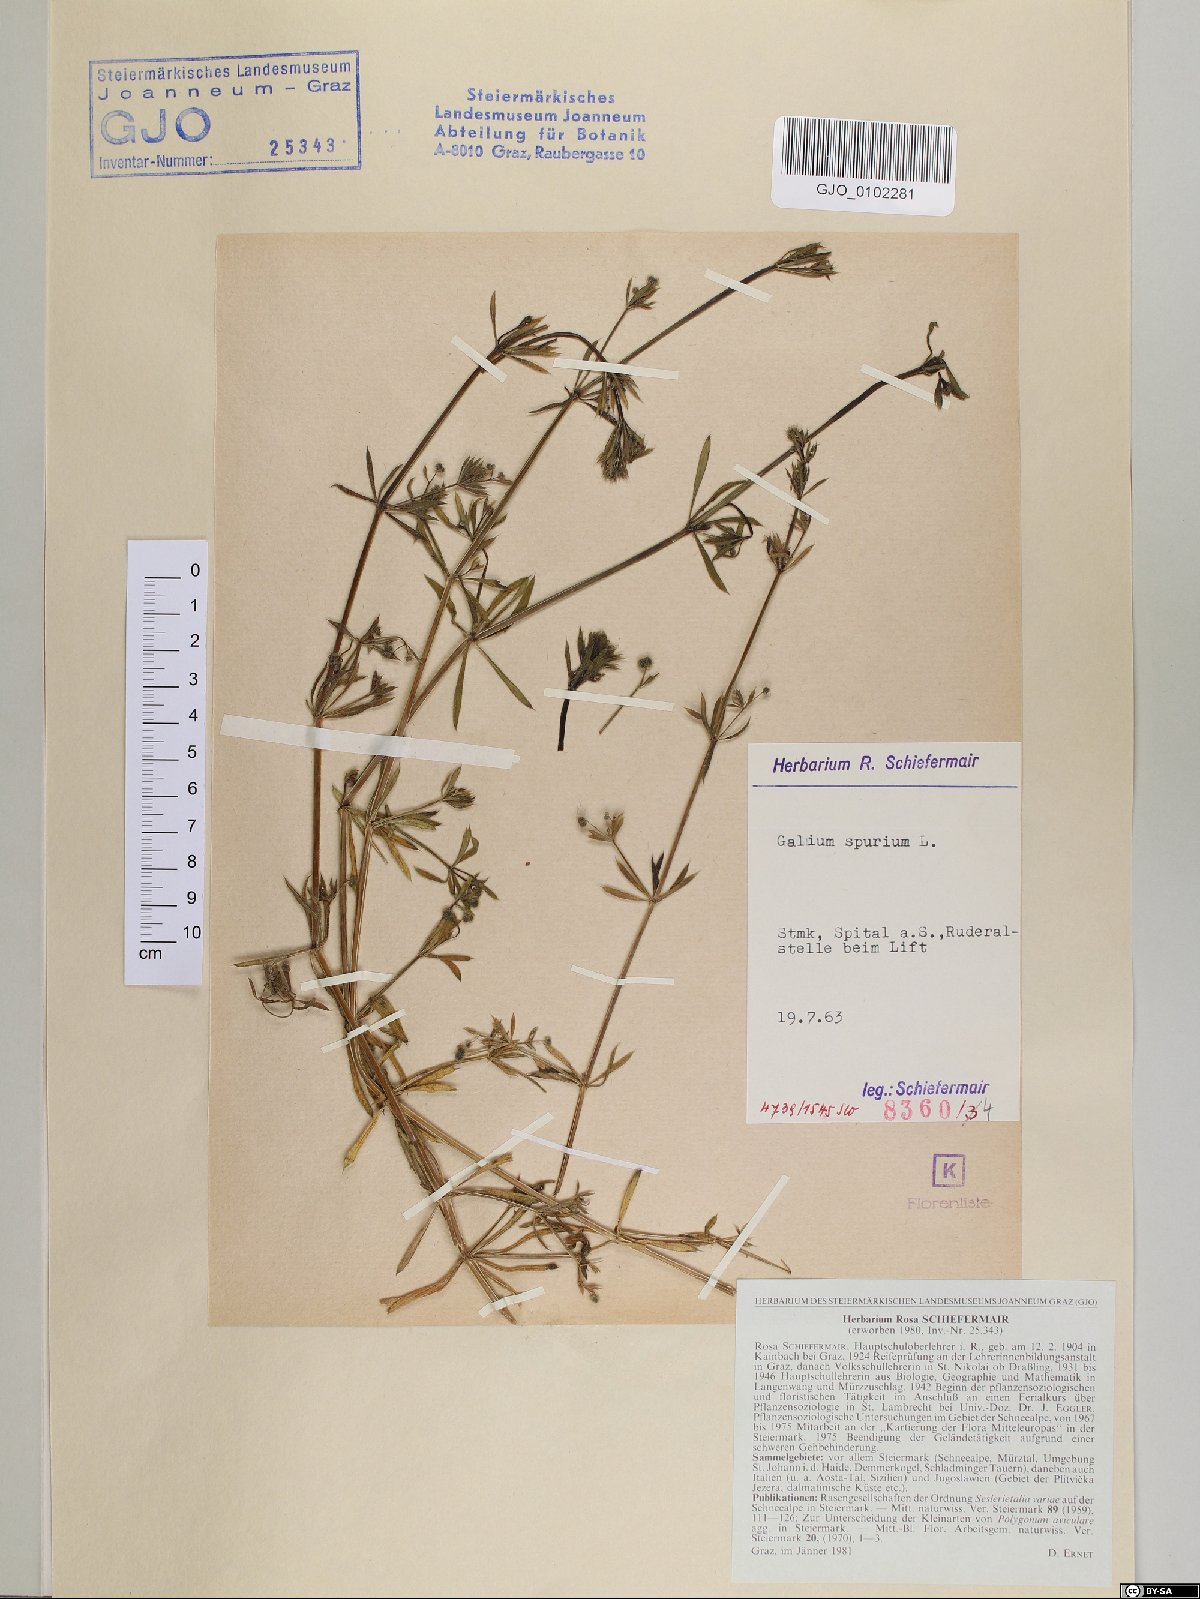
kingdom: Plantae
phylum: Tracheophyta
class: Magnoliopsida
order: Gentianales
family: Rubiaceae
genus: Galium
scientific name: Galium spurium
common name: False cleavers
